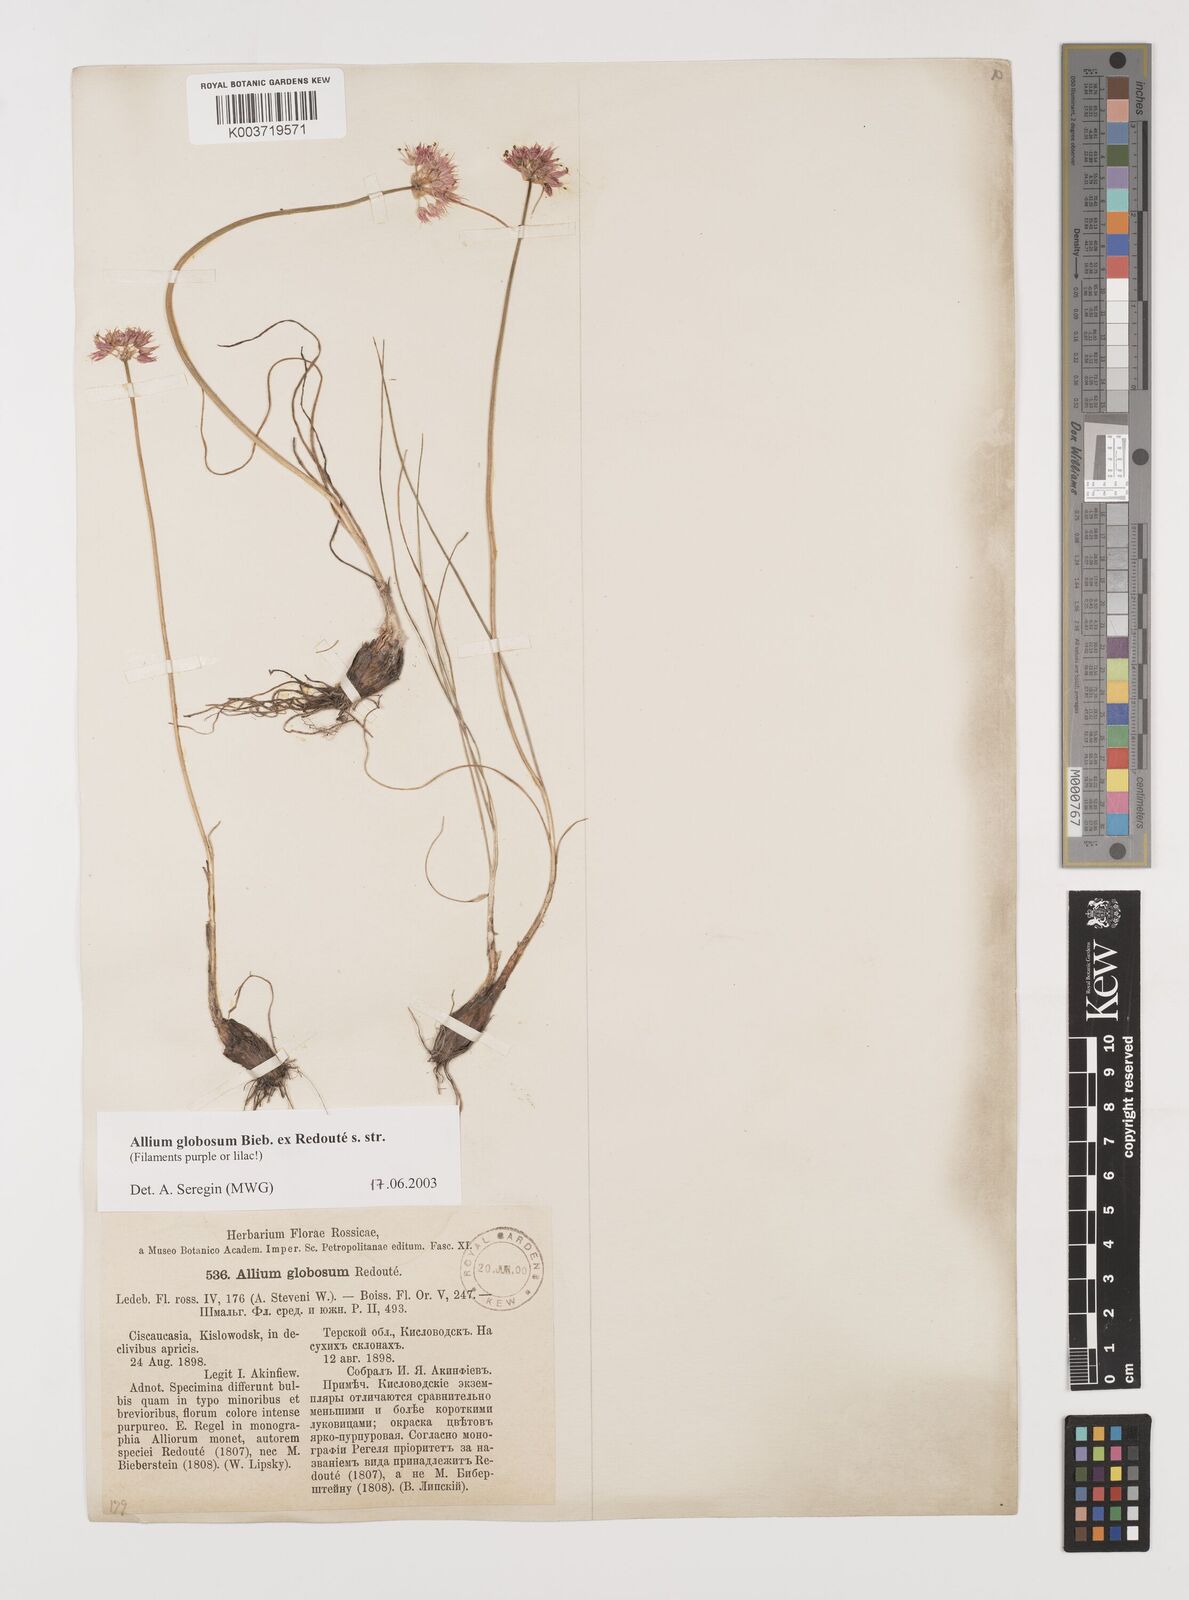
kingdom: Plantae
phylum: Tracheophyta
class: Liliopsida
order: Asparagales
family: Amaryllidaceae
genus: Allium
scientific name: Allium saxatile
